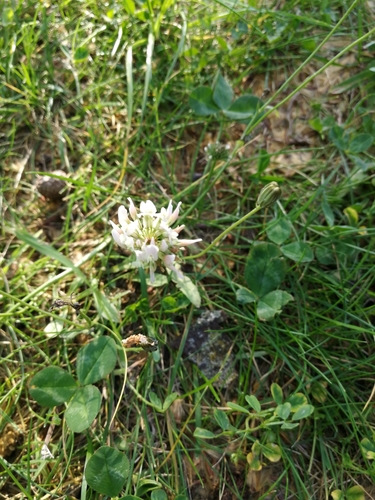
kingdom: Plantae
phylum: Tracheophyta
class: Magnoliopsida
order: Fabales
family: Fabaceae
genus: Trifolium
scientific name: Trifolium repens
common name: White clover
